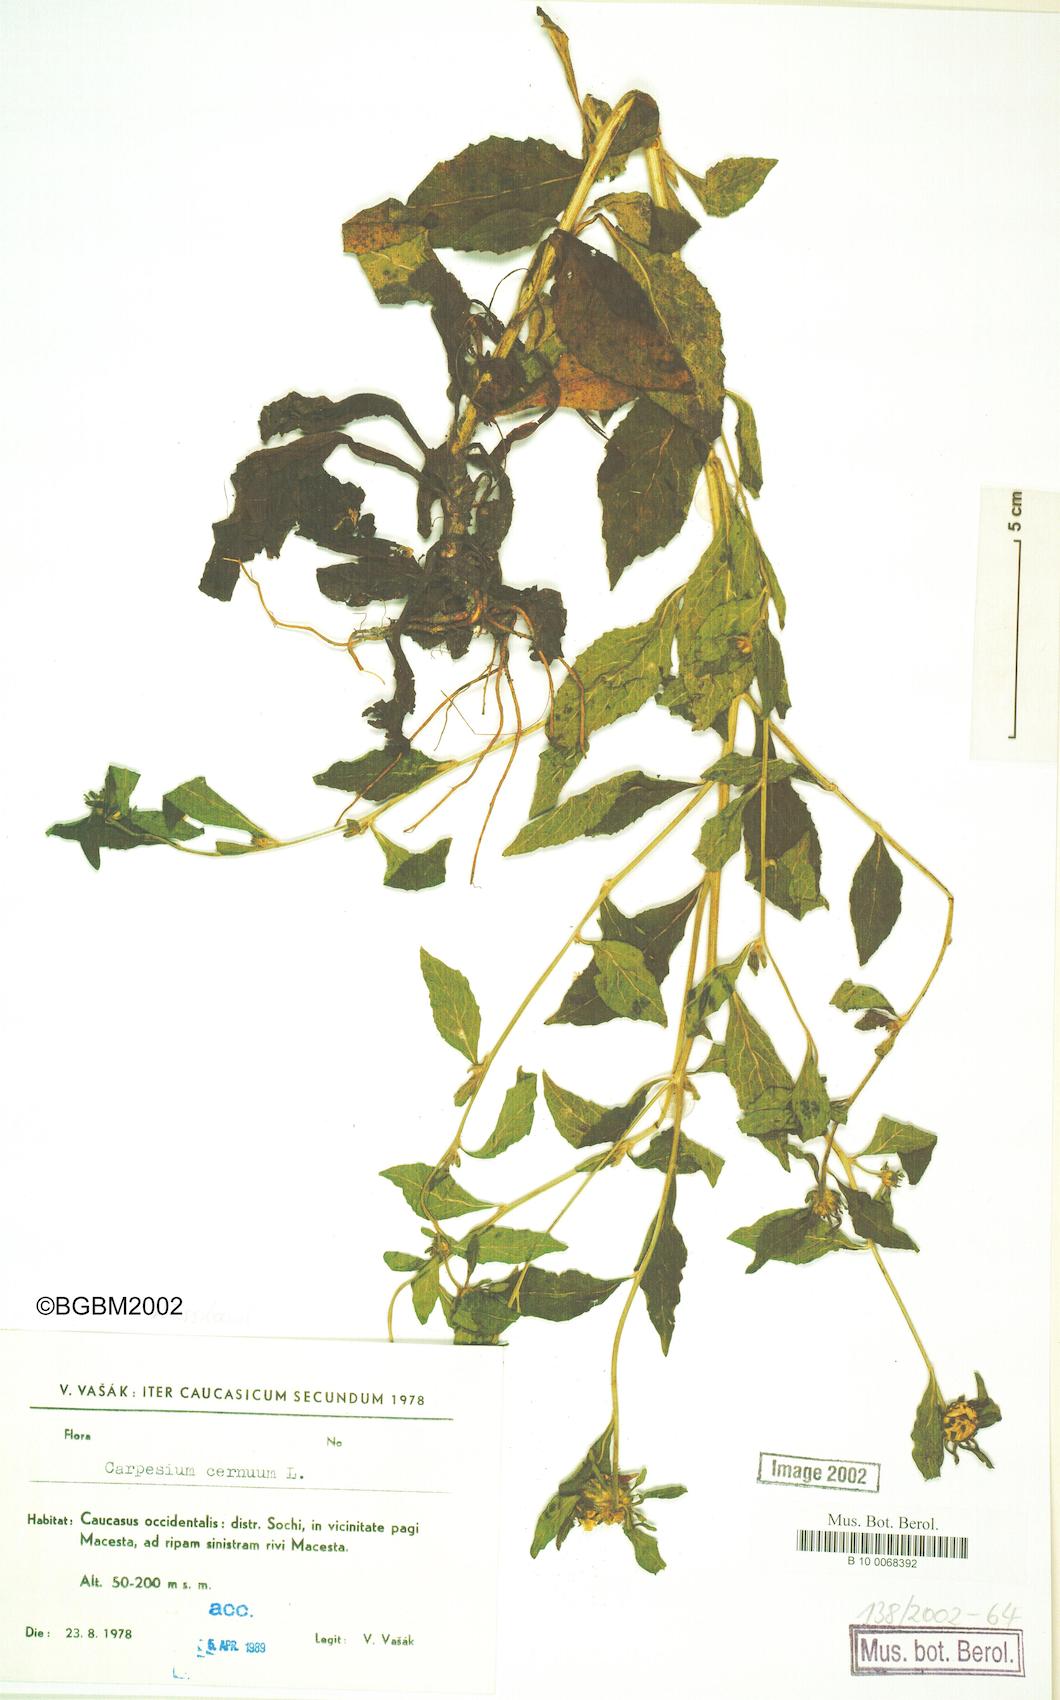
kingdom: Plantae
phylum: Tracheophyta
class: Magnoliopsida
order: Asterales
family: Asteraceae
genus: Carpesium
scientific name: Carpesium cernuum
